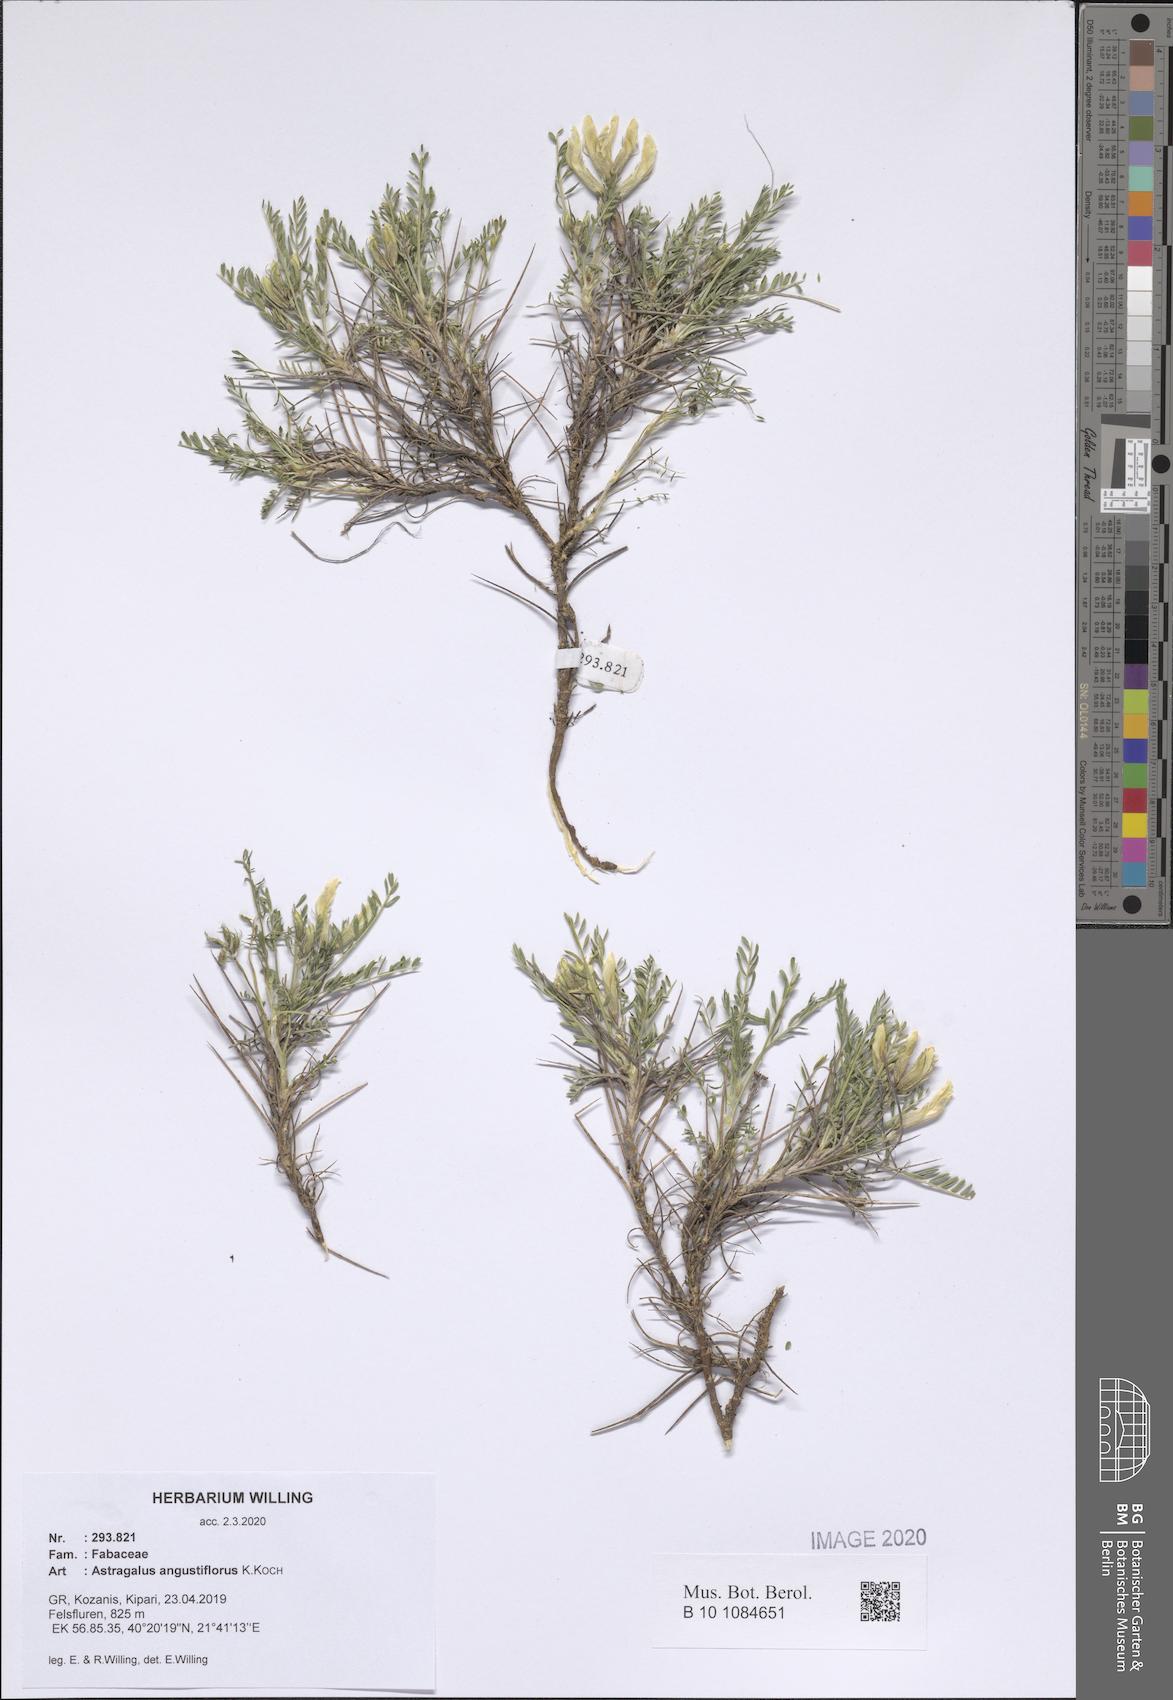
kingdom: Plantae
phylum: Tracheophyta
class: Magnoliopsida
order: Fabales
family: Fabaceae
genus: Astragalus
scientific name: Astragalus angustiflorus
